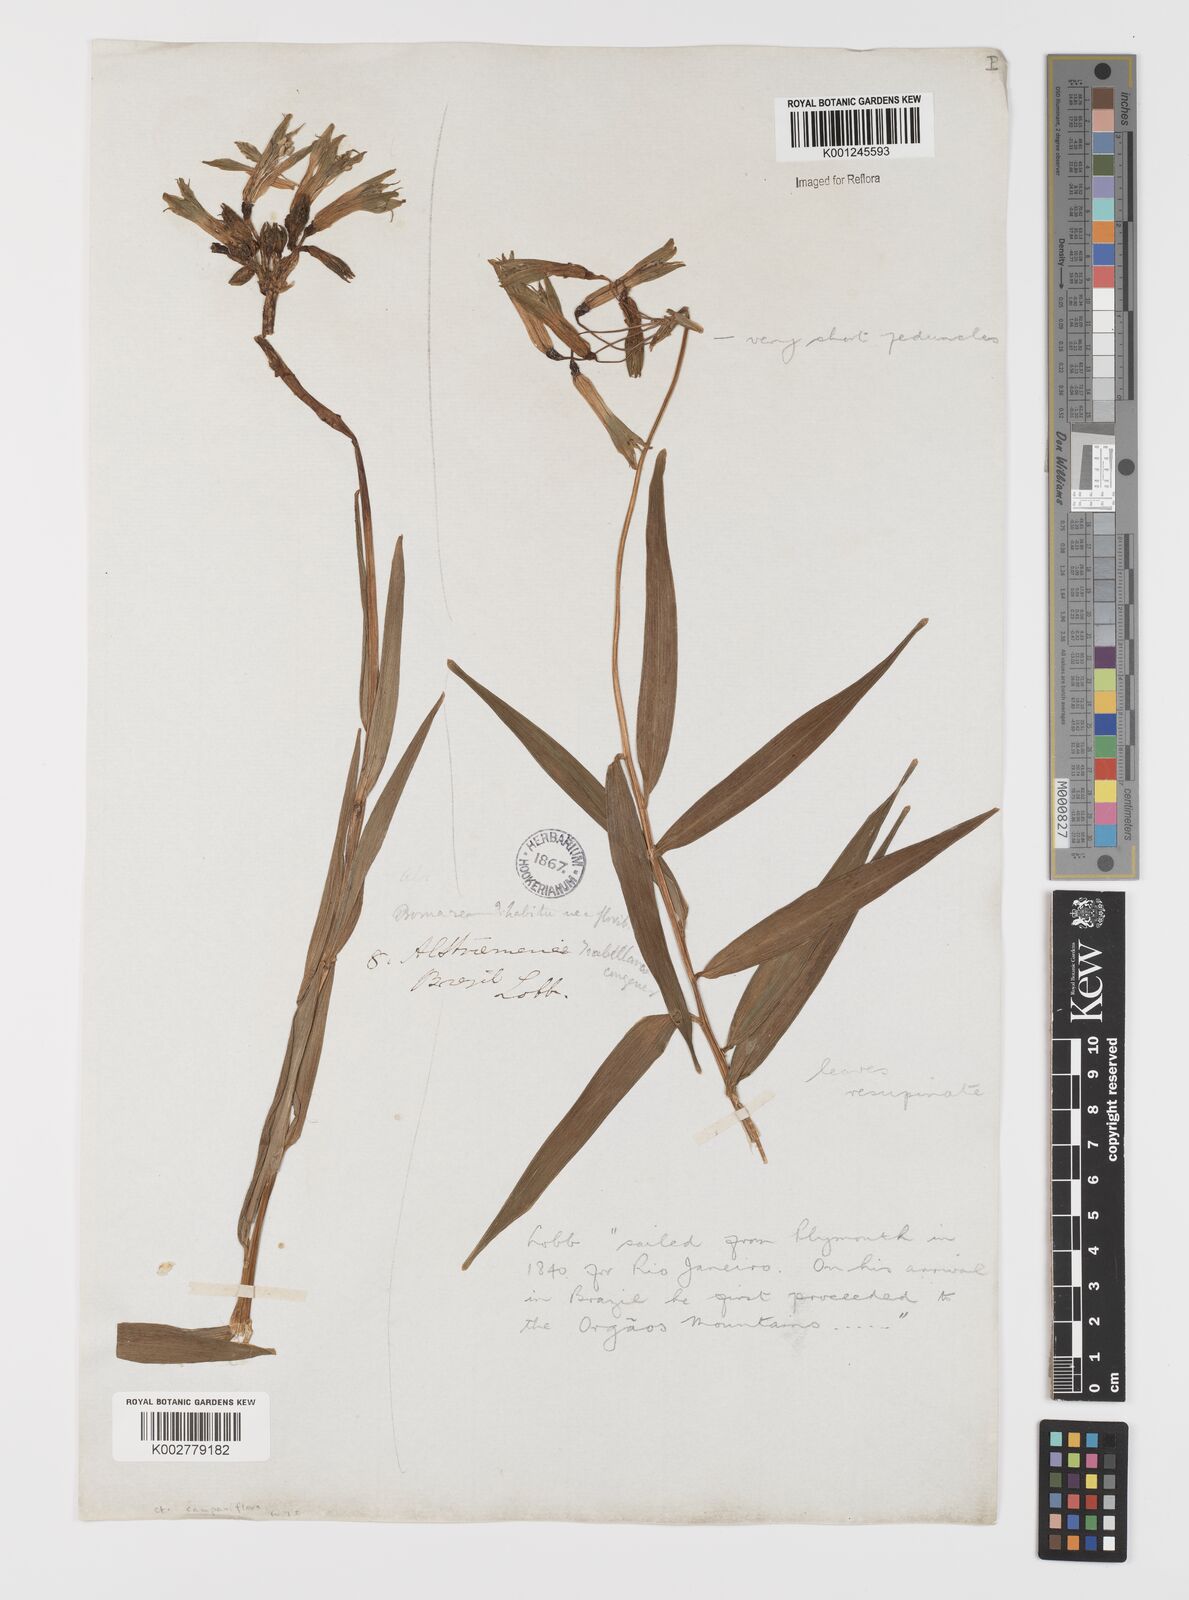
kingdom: Plantae
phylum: Tracheophyta
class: Liliopsida
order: Liliales
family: Alstroemeriaceae
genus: Alstroemeria
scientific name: Alstroemeria isabelleana
